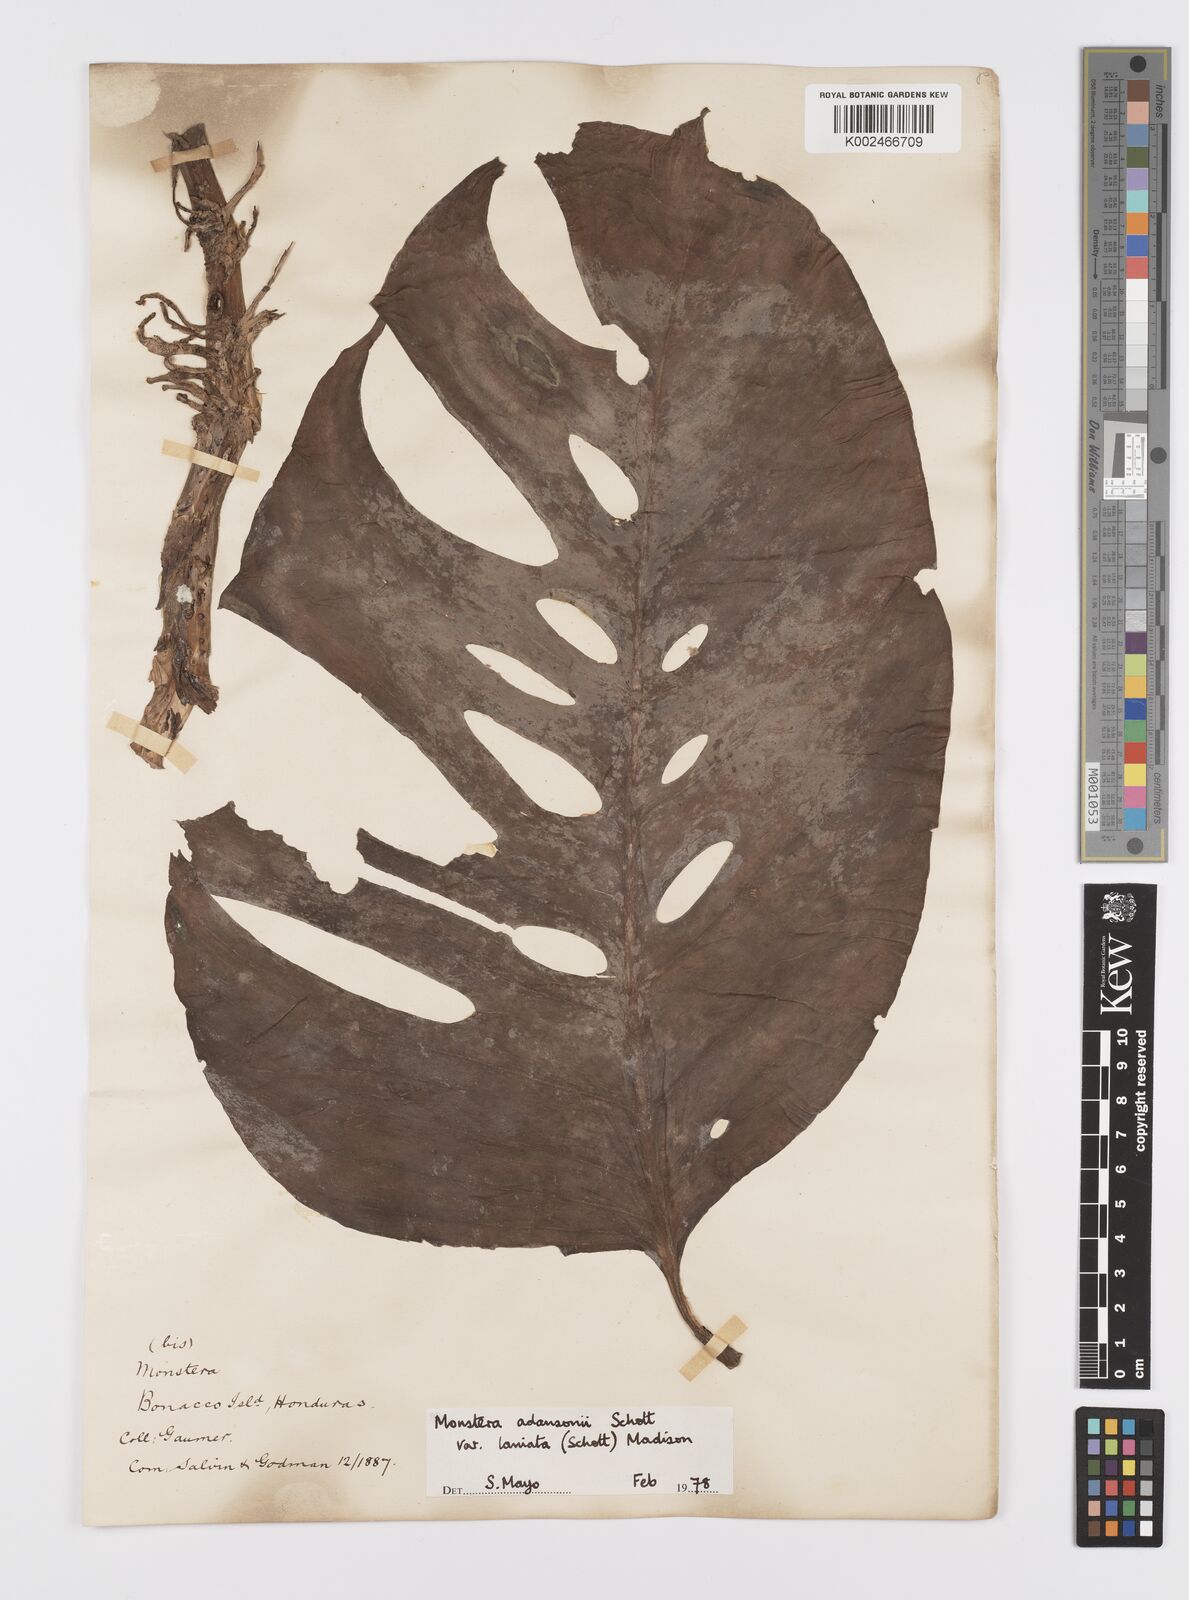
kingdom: Plantae
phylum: Tracheophyta
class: Liliopsida
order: Alismatales
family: Araceae
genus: Monstera
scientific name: Monstera adansonii
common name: Tarovine
